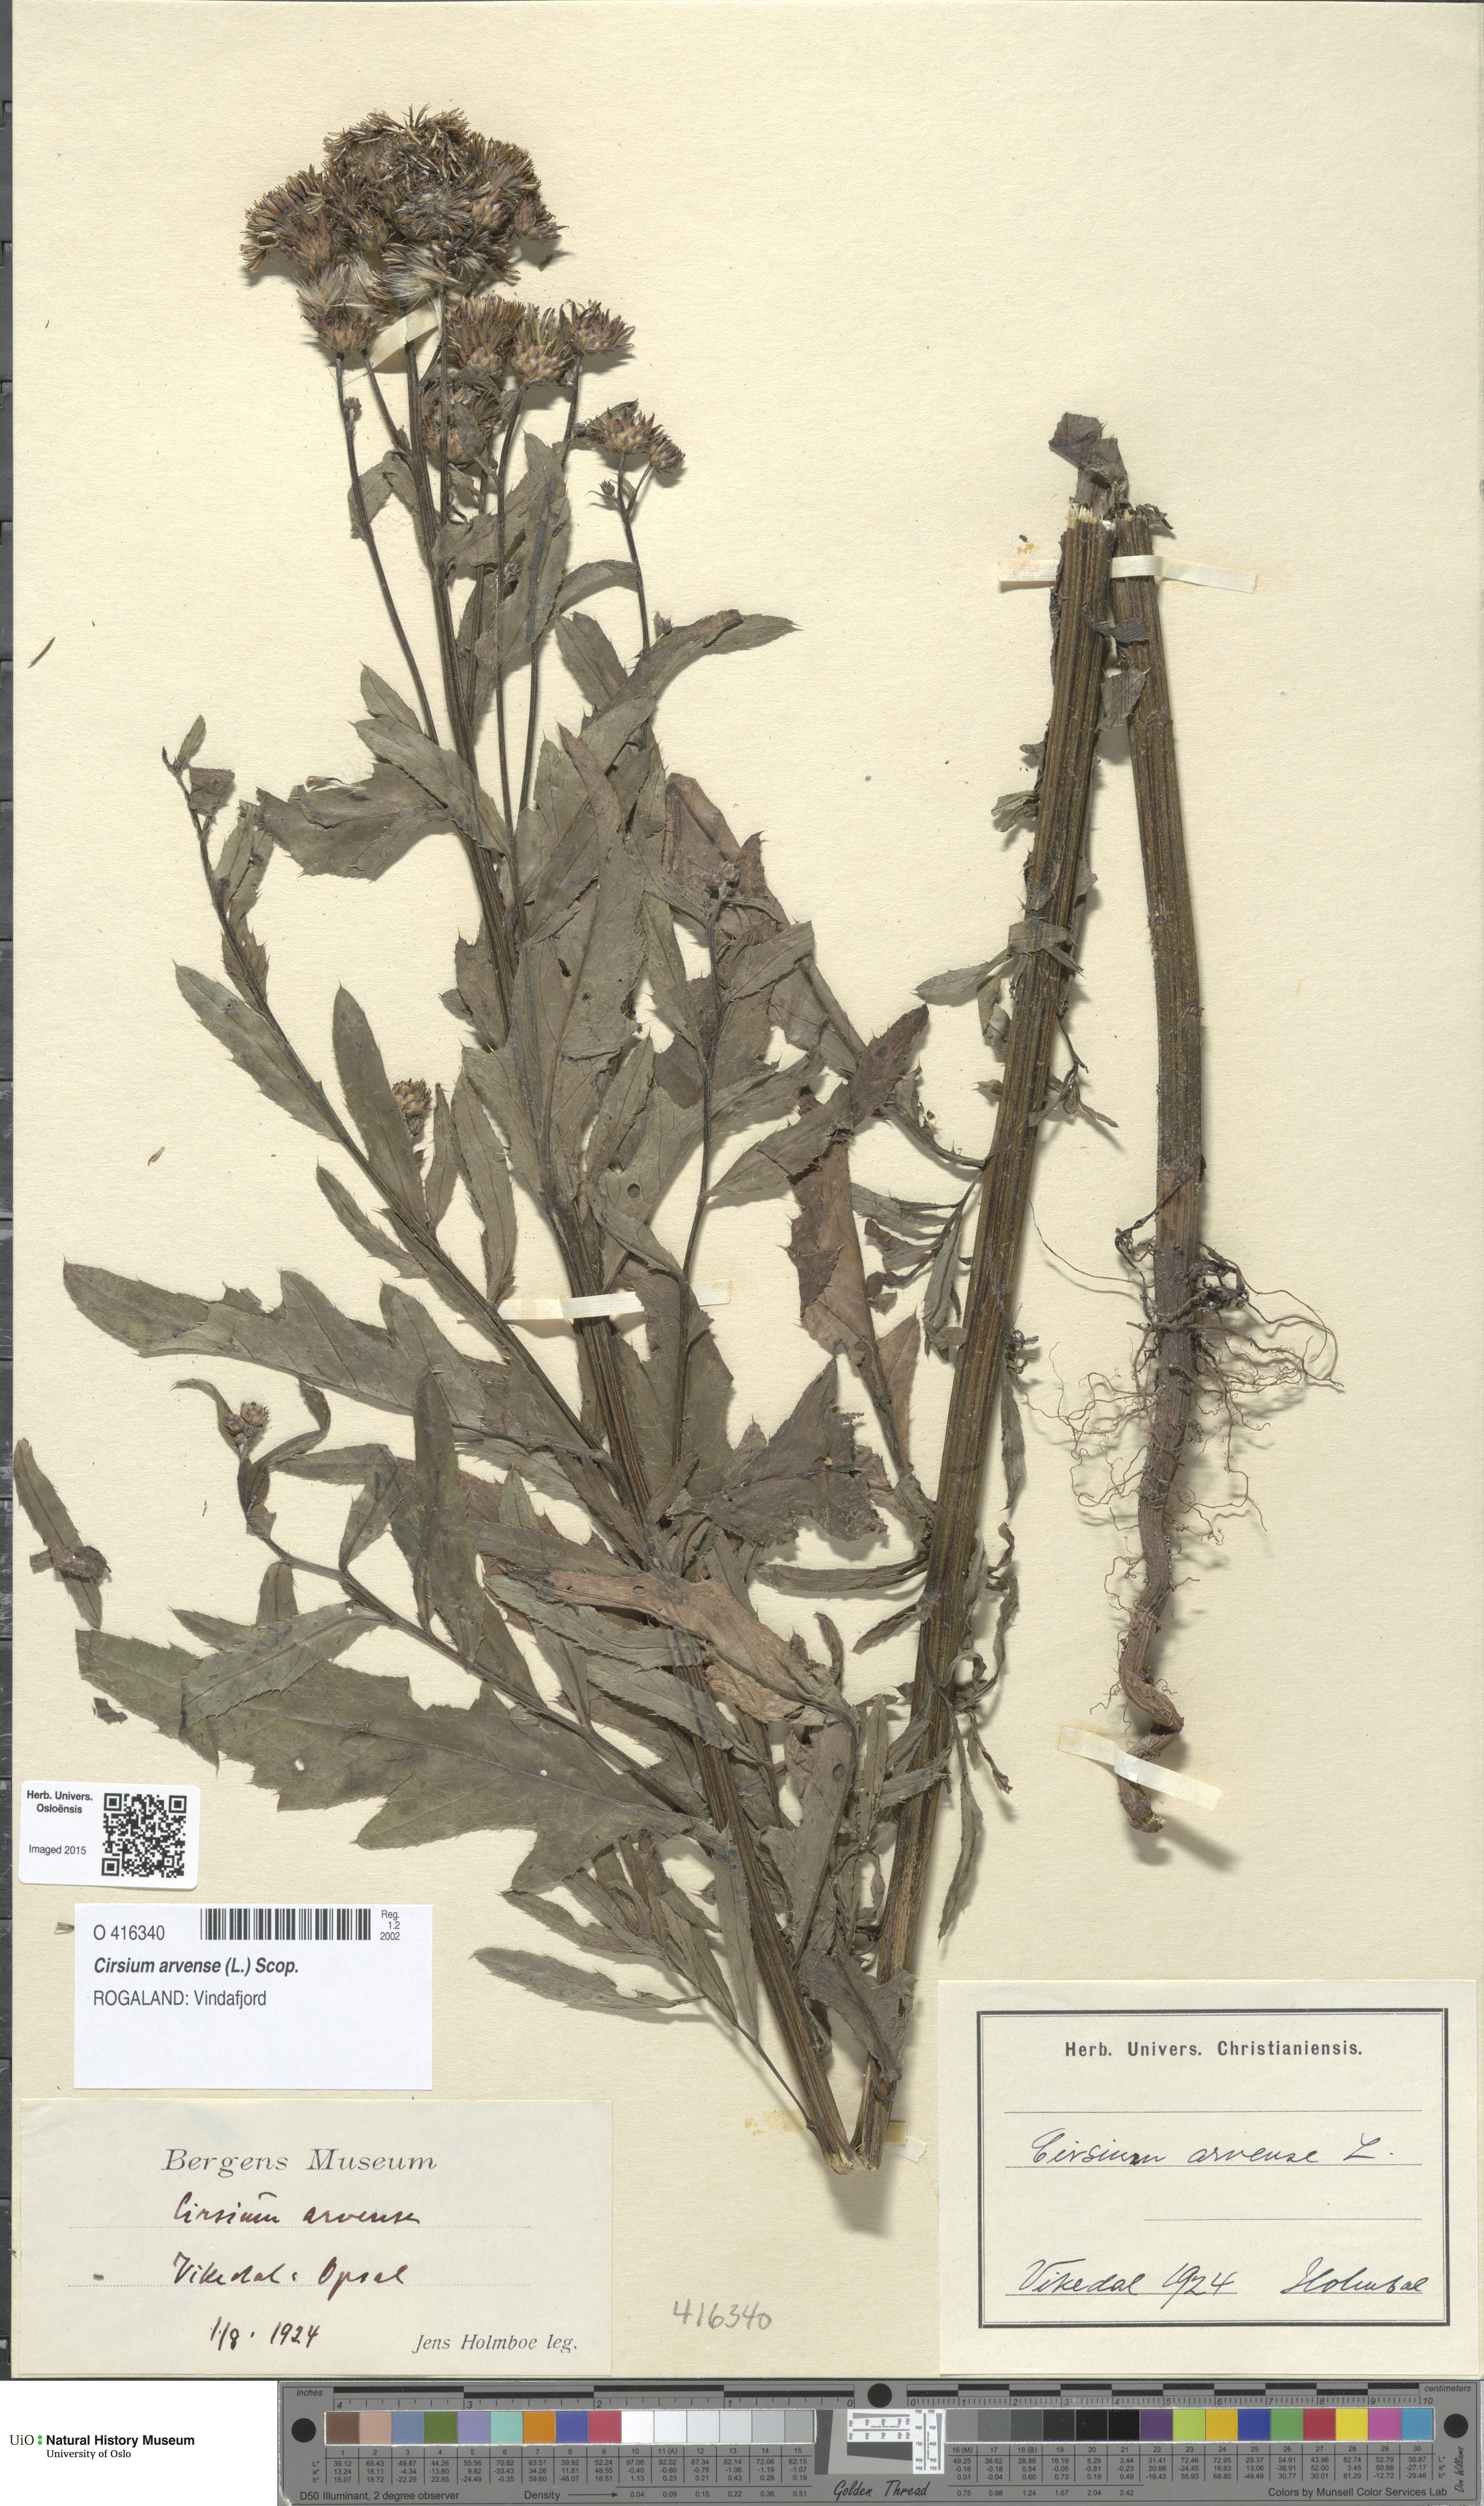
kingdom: Plantae
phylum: Tracheophyta
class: Magnoliopsida
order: Asterales
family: Asteraceae
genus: Cirsium
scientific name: Cirsium arvense
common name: Creeping thistle
